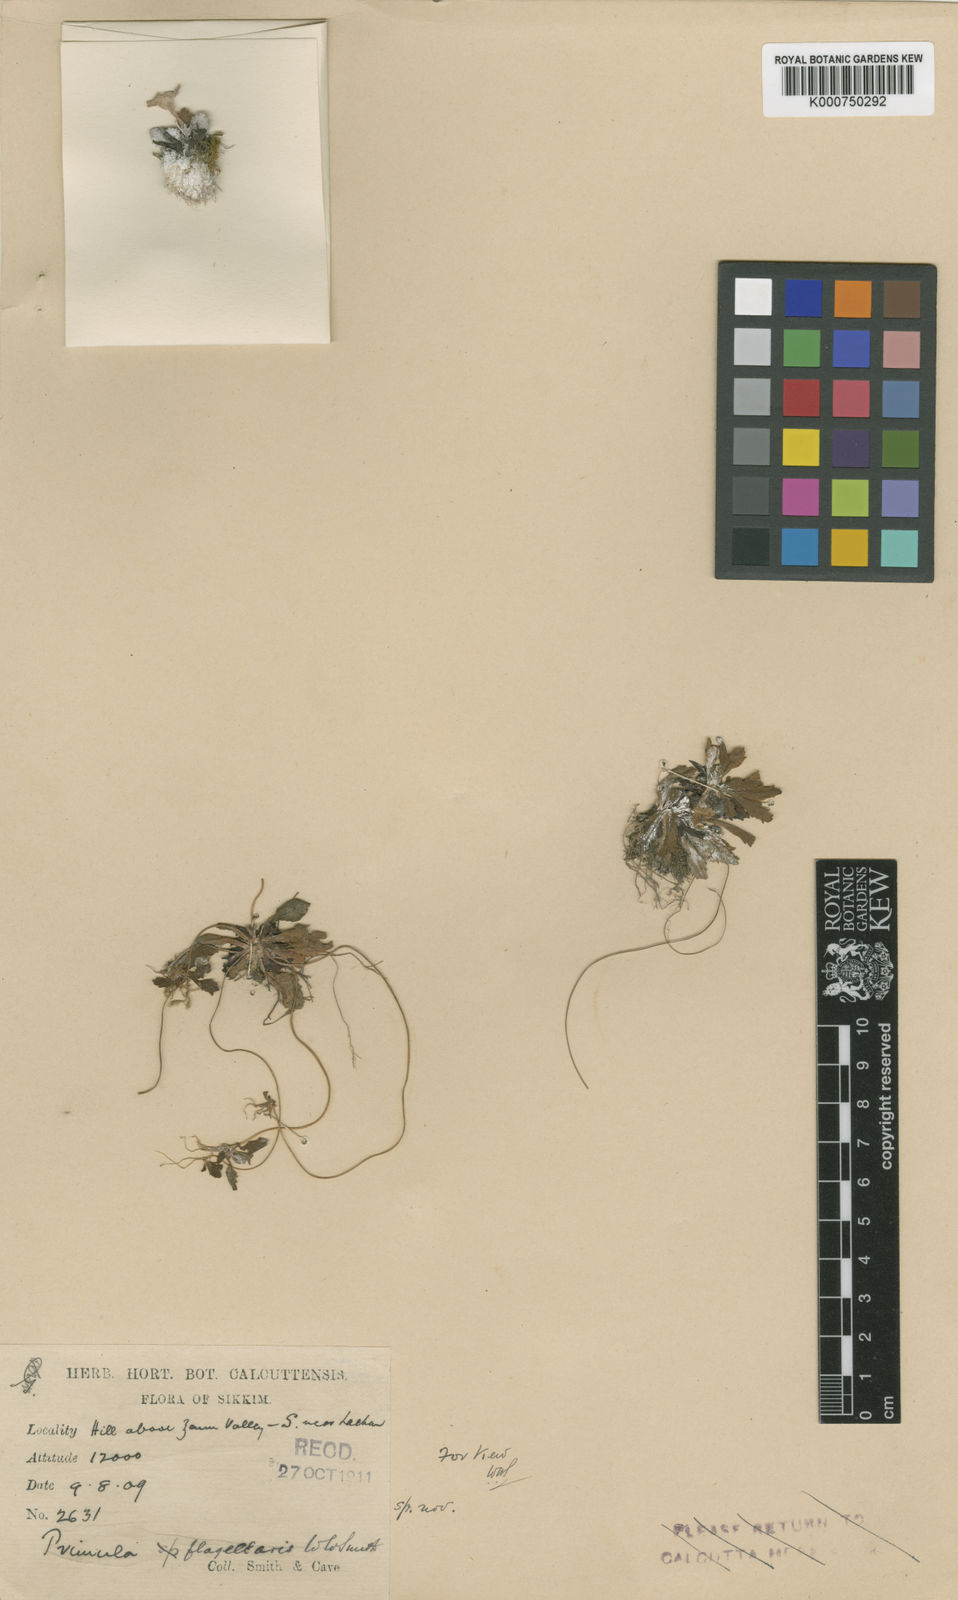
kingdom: Plantae
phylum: Tracheophyta
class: Magnoliopsida
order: Ericales
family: Primulaceae
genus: Primula
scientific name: Primula flagellaris
